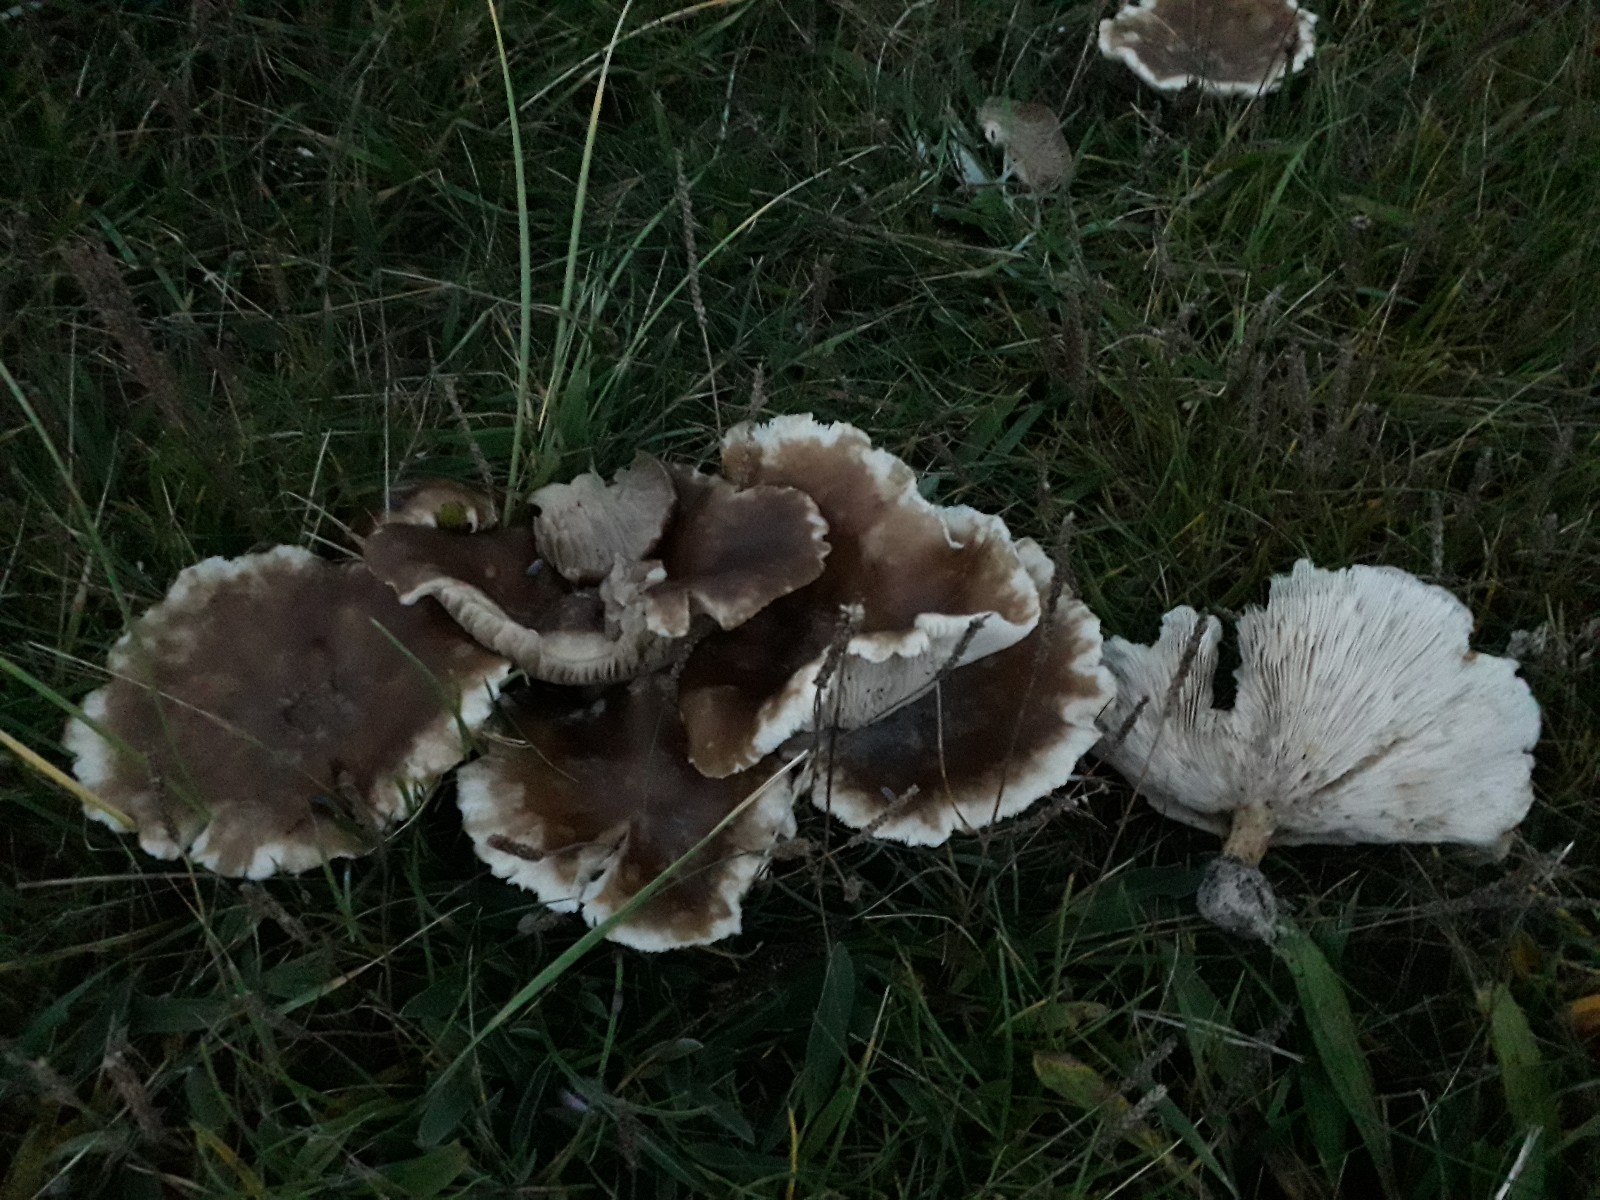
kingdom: Fungi
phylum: Basidiomycota
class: Agaricomycetes
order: Agaricales
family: Tricholomataceae
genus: Melanoleuca
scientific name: Melanoleuca
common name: munkehat
